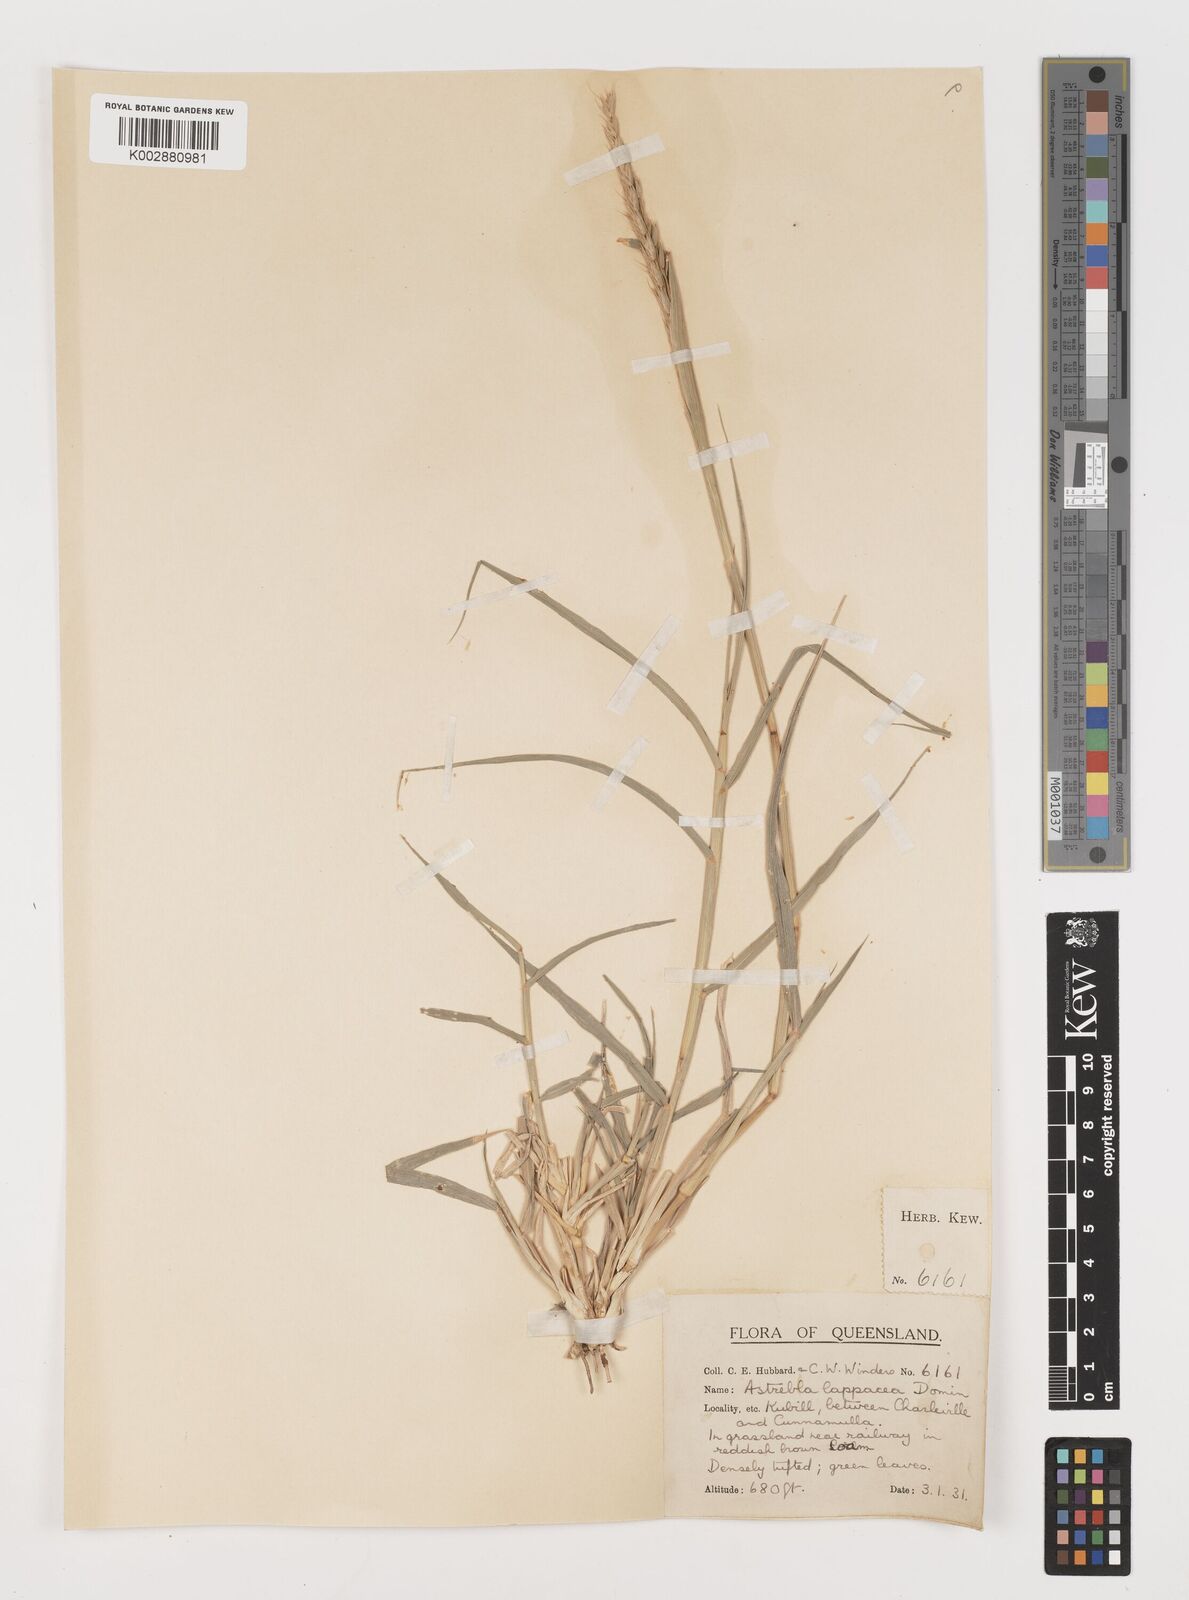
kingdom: Plantae
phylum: Tracheophyta
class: Liliopsida
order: Poales
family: Poaceae
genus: Astrebla
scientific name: Astrebla lappacea
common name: Curly mitchell grass
